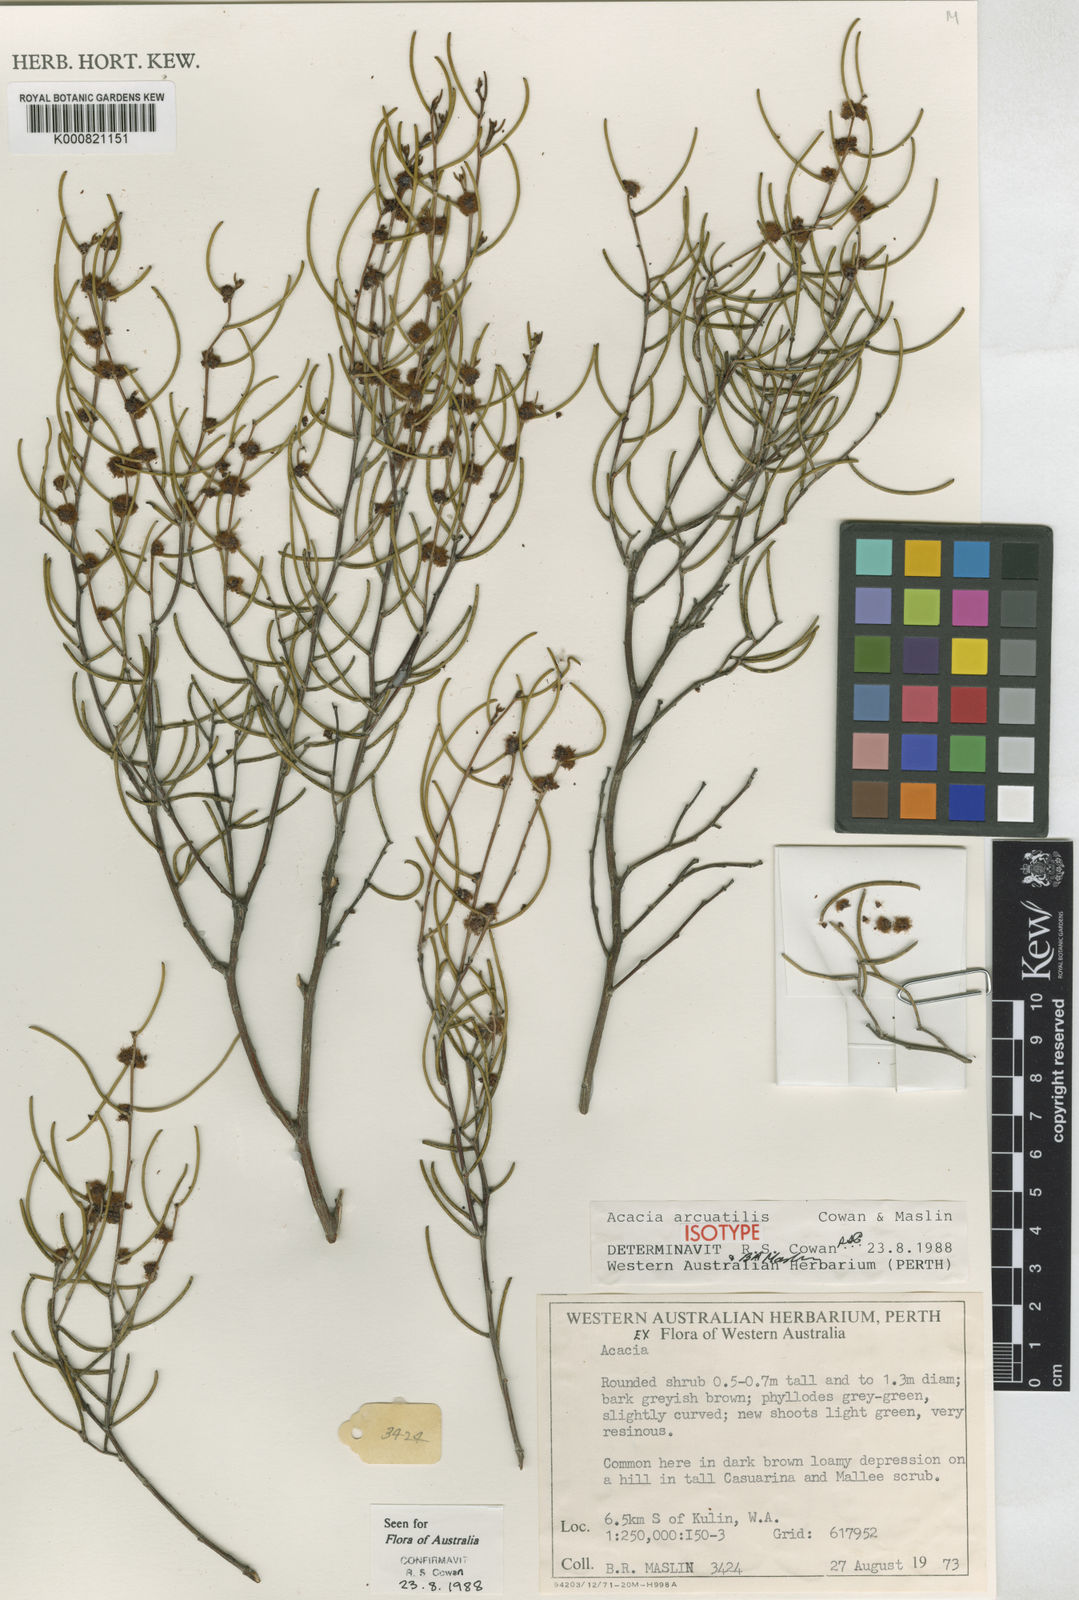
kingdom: Plantae
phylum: Tracheophyta
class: Magnoliopsida
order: Fabales
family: Fabaceae
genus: Acacia
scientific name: Acacia arcuatilis
